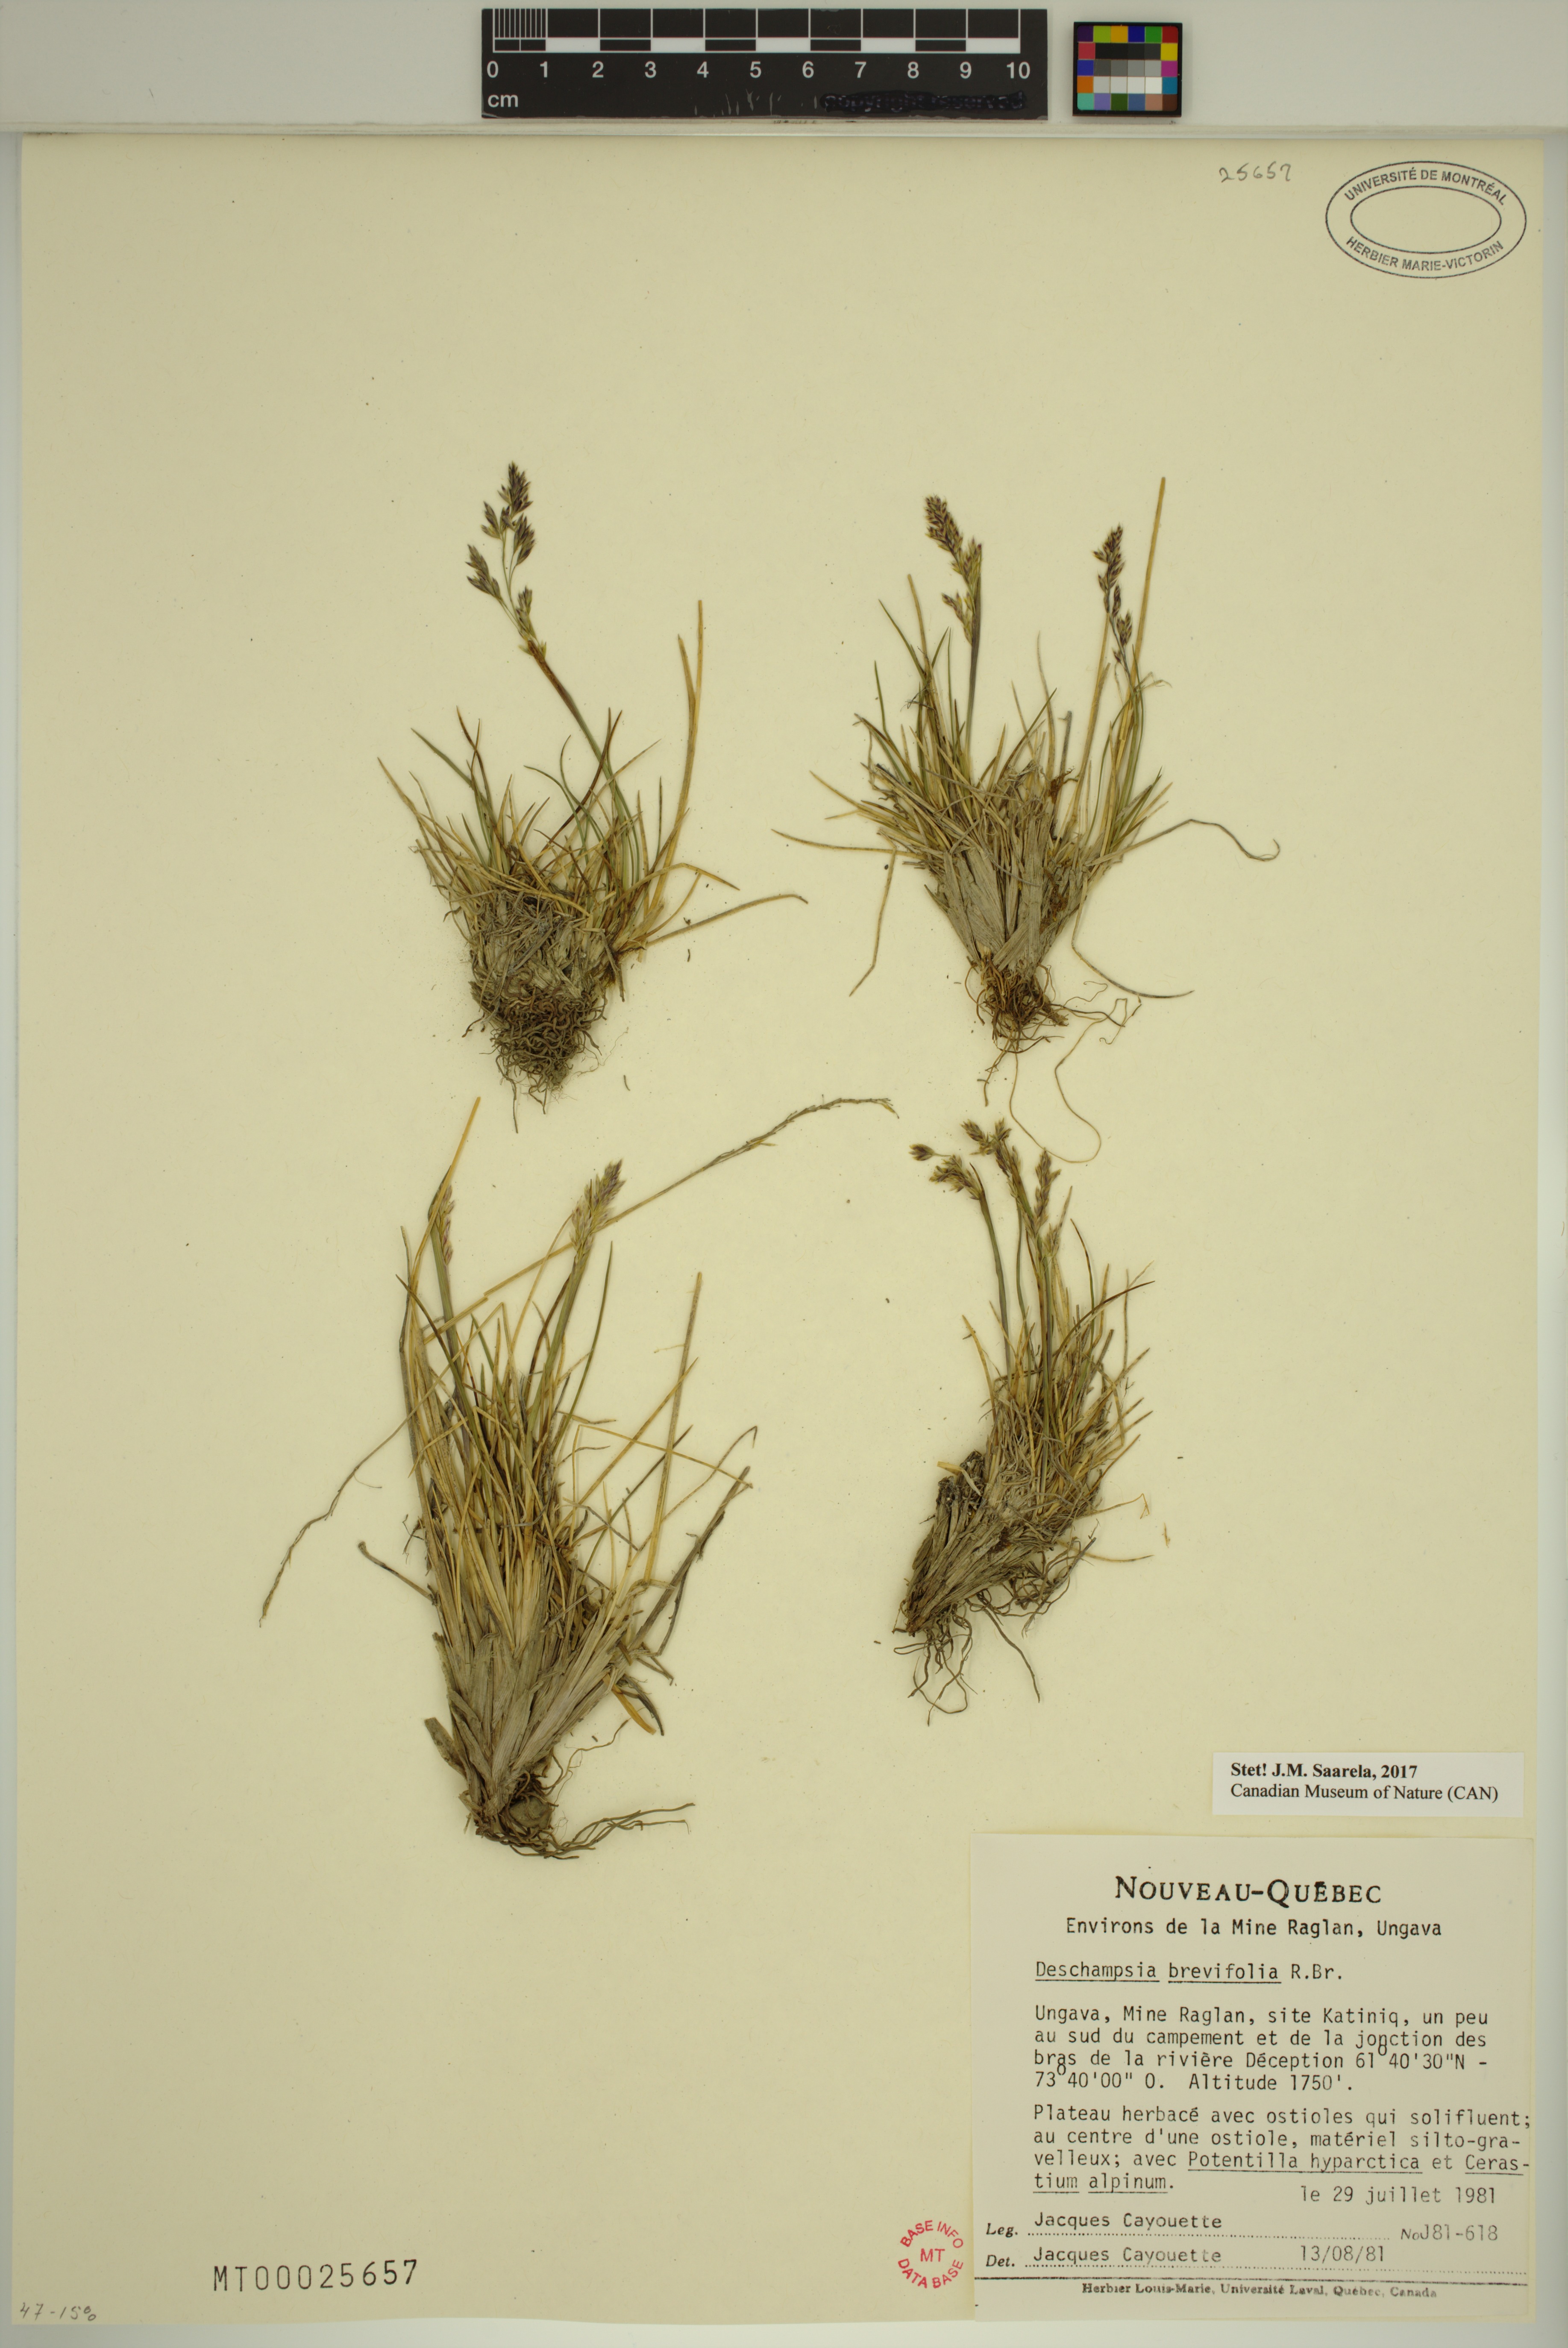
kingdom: Plantae
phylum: Tracheophyta
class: Liliopsida
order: Poales
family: Poaceae
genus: Deschampsia
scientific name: Deschampsia cespitosa
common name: Tufted hair-grass
